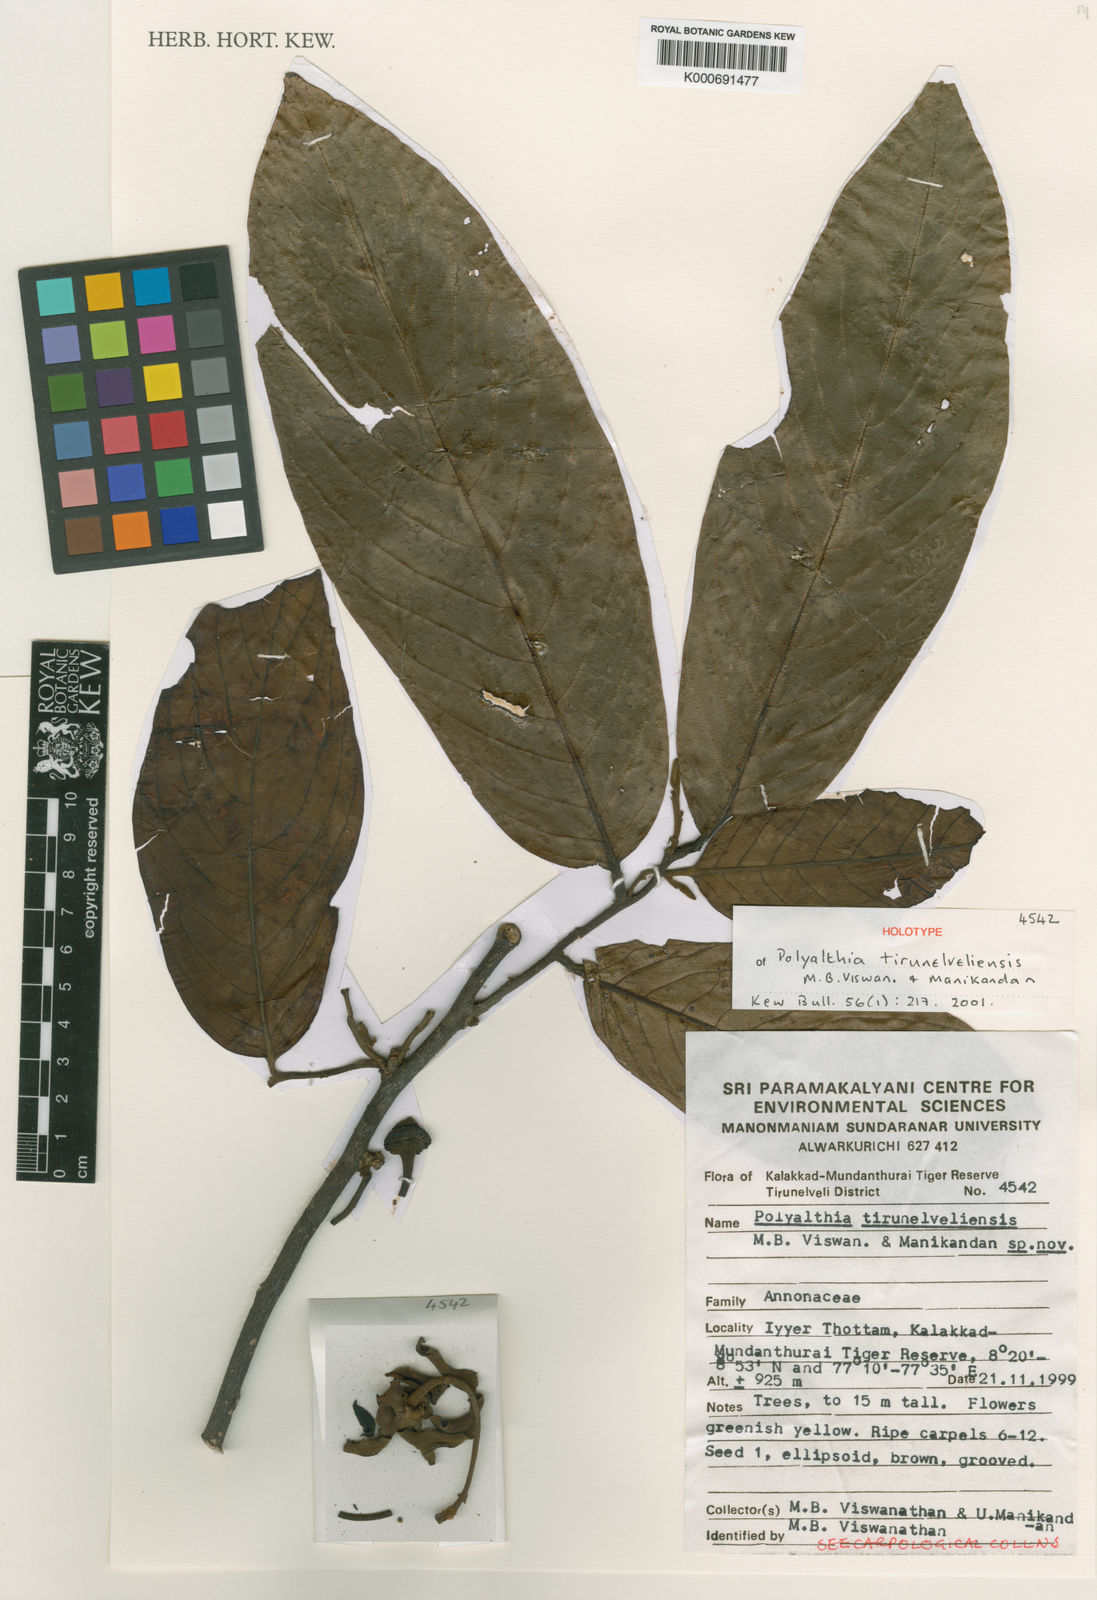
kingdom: Plantae
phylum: Tracheophyta
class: Magnoliopsida
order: Magnoliales
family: Annonaceae
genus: Monoon
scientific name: Monoon tirunelveliense
